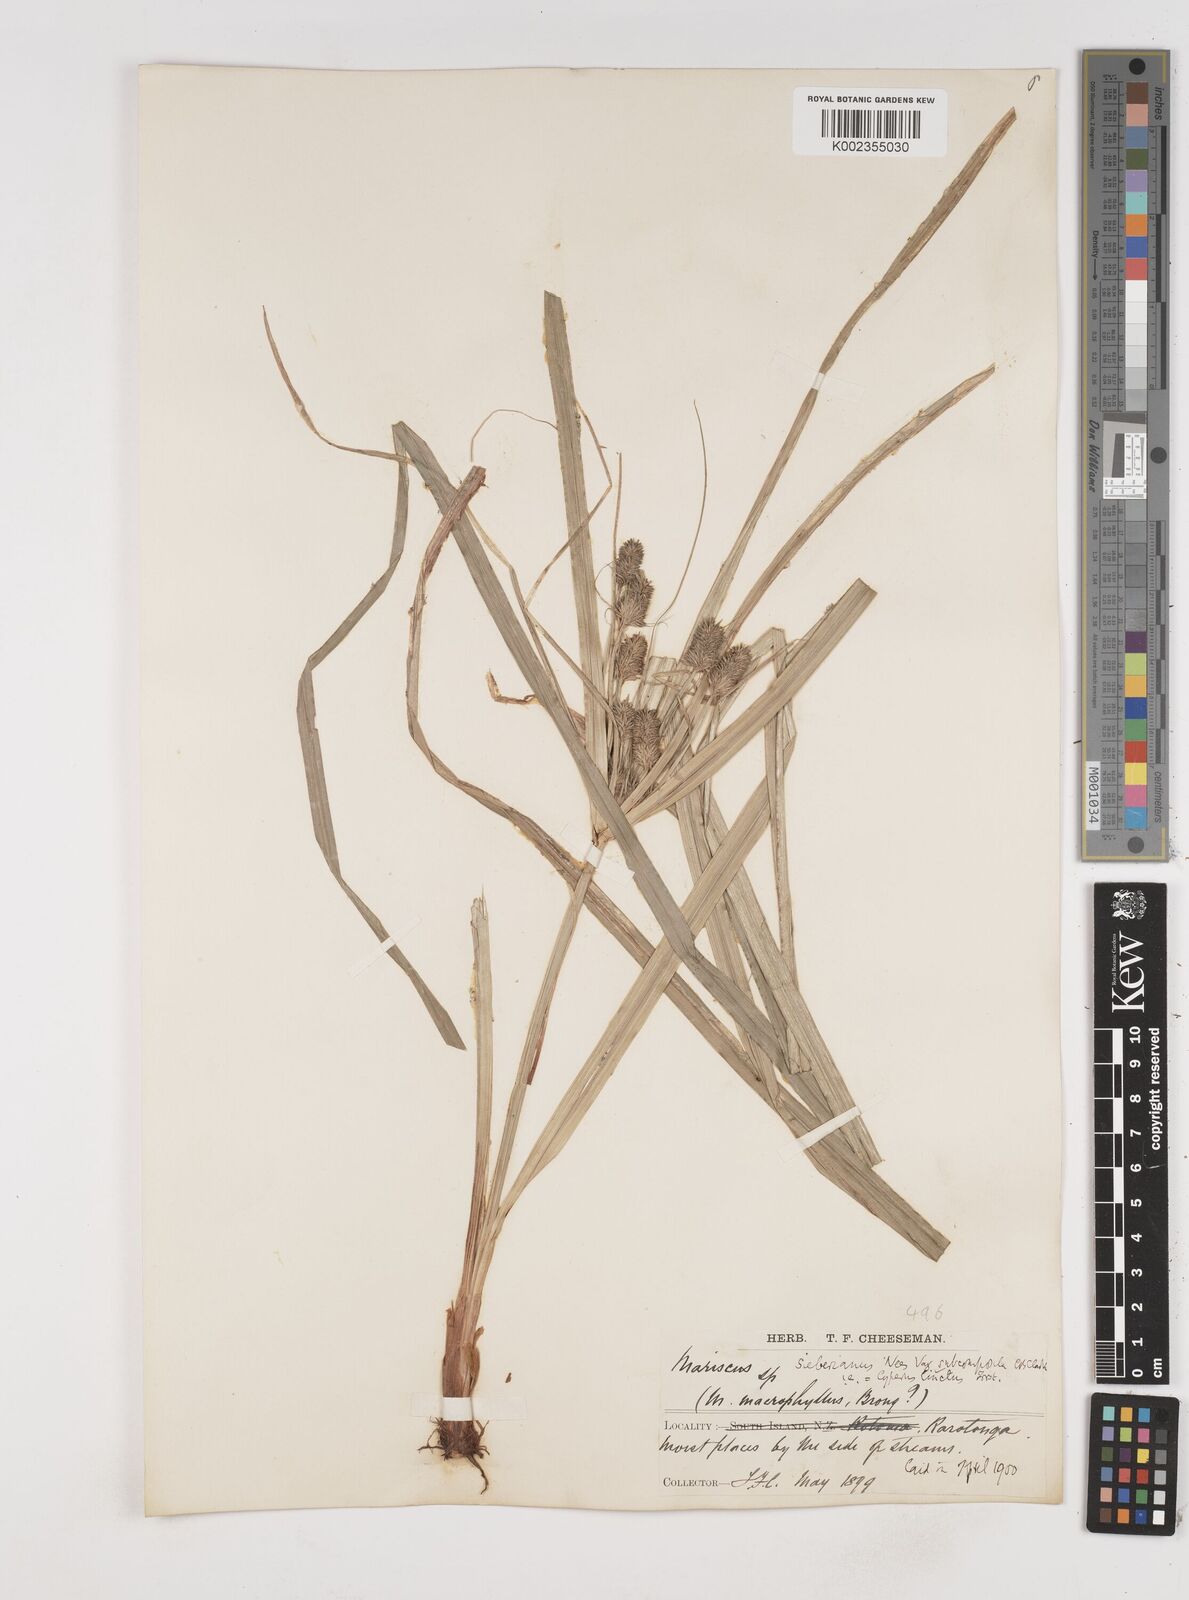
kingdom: Plantae
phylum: Tracheophyta
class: Liliopsida
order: Poales
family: Cyperaceae
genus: Cyperus
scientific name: Cyperus whitmeei
